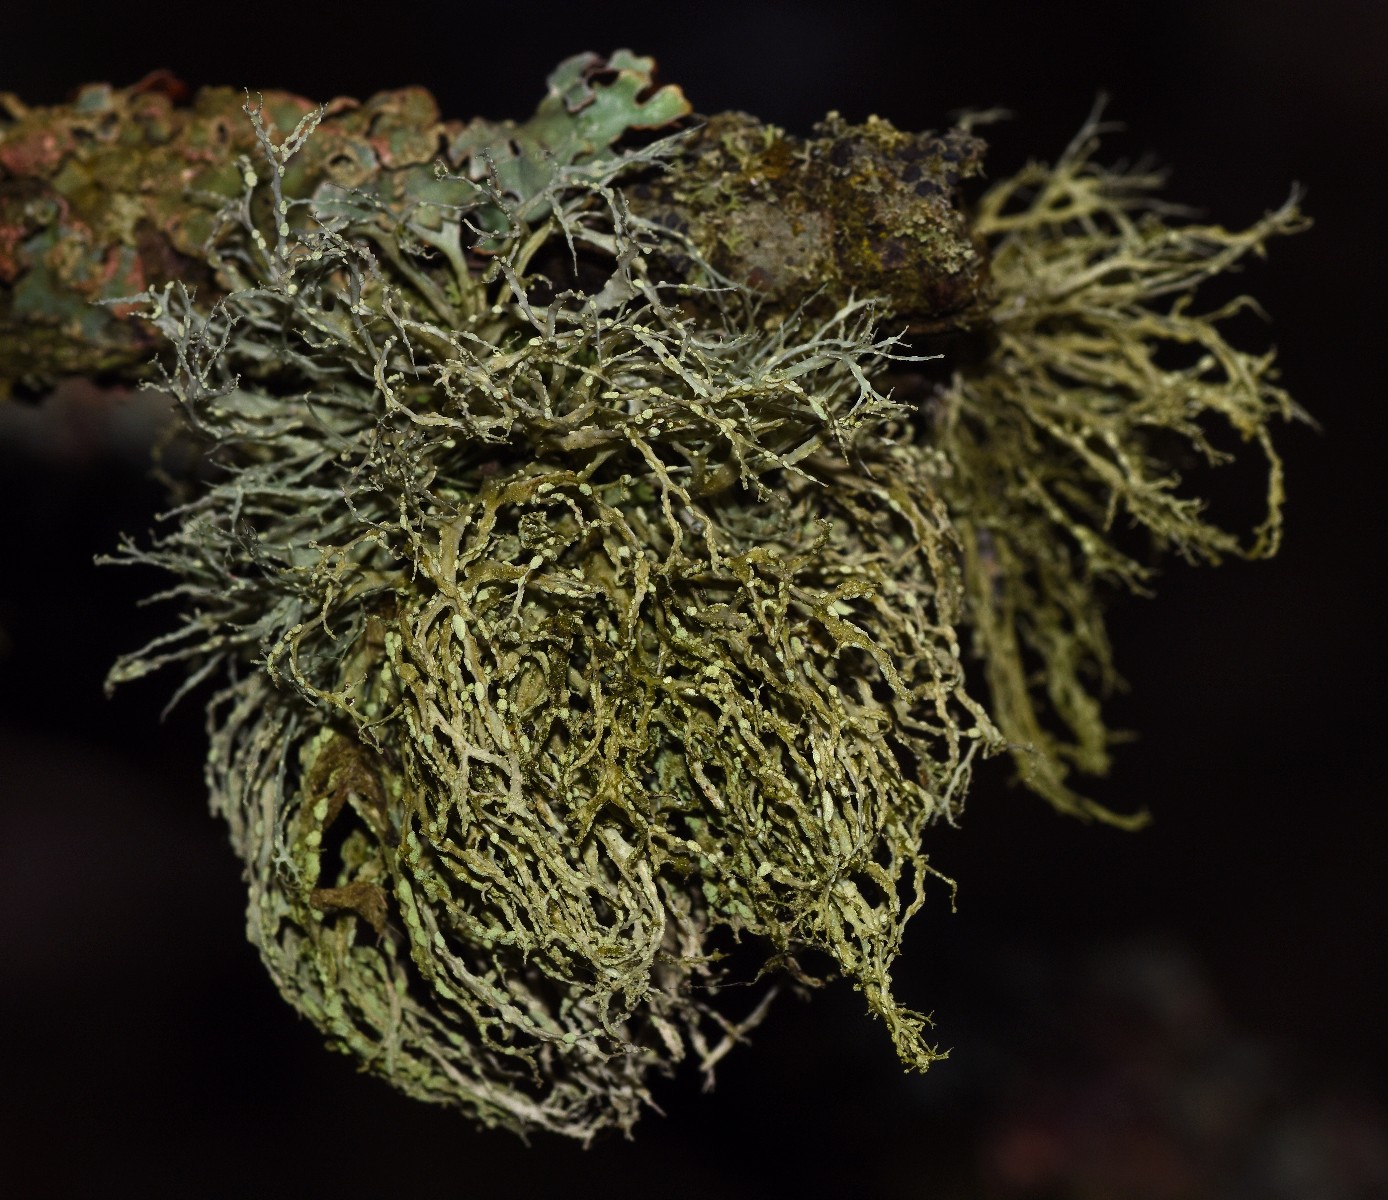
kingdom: Fungi
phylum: Ascomycota
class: Lecanoromycetes
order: Lecanorales
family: Ramalinaceae
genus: Ramalina
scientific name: Ramalina farinacea
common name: melet grenlav
